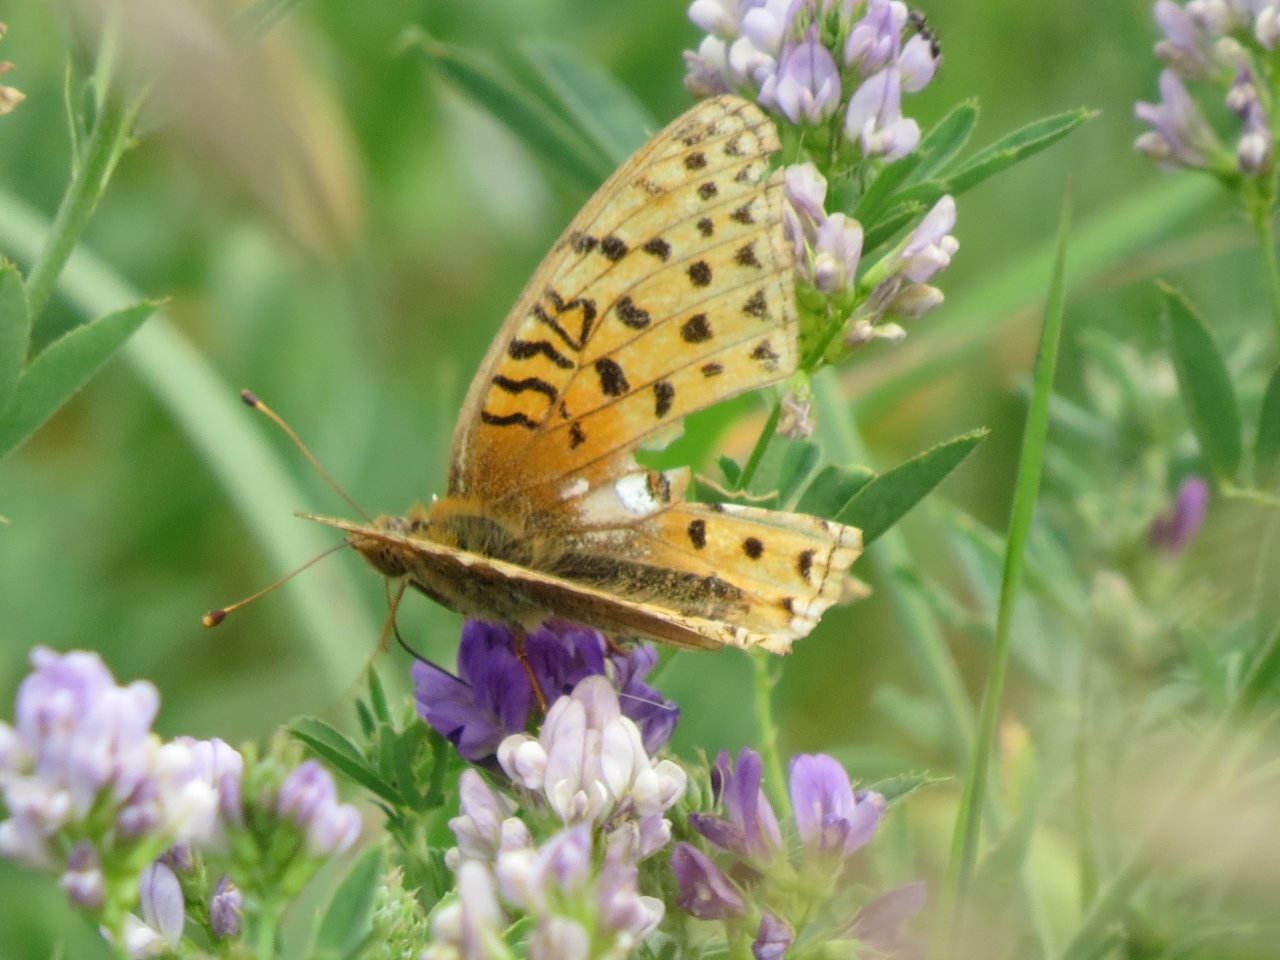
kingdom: Animalia
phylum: Arthropoda
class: Insecta
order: Lepidoptera
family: Nymphalidae
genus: Speyeria
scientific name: Speyeria aphrodite
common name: Aphrodite Fritillary
